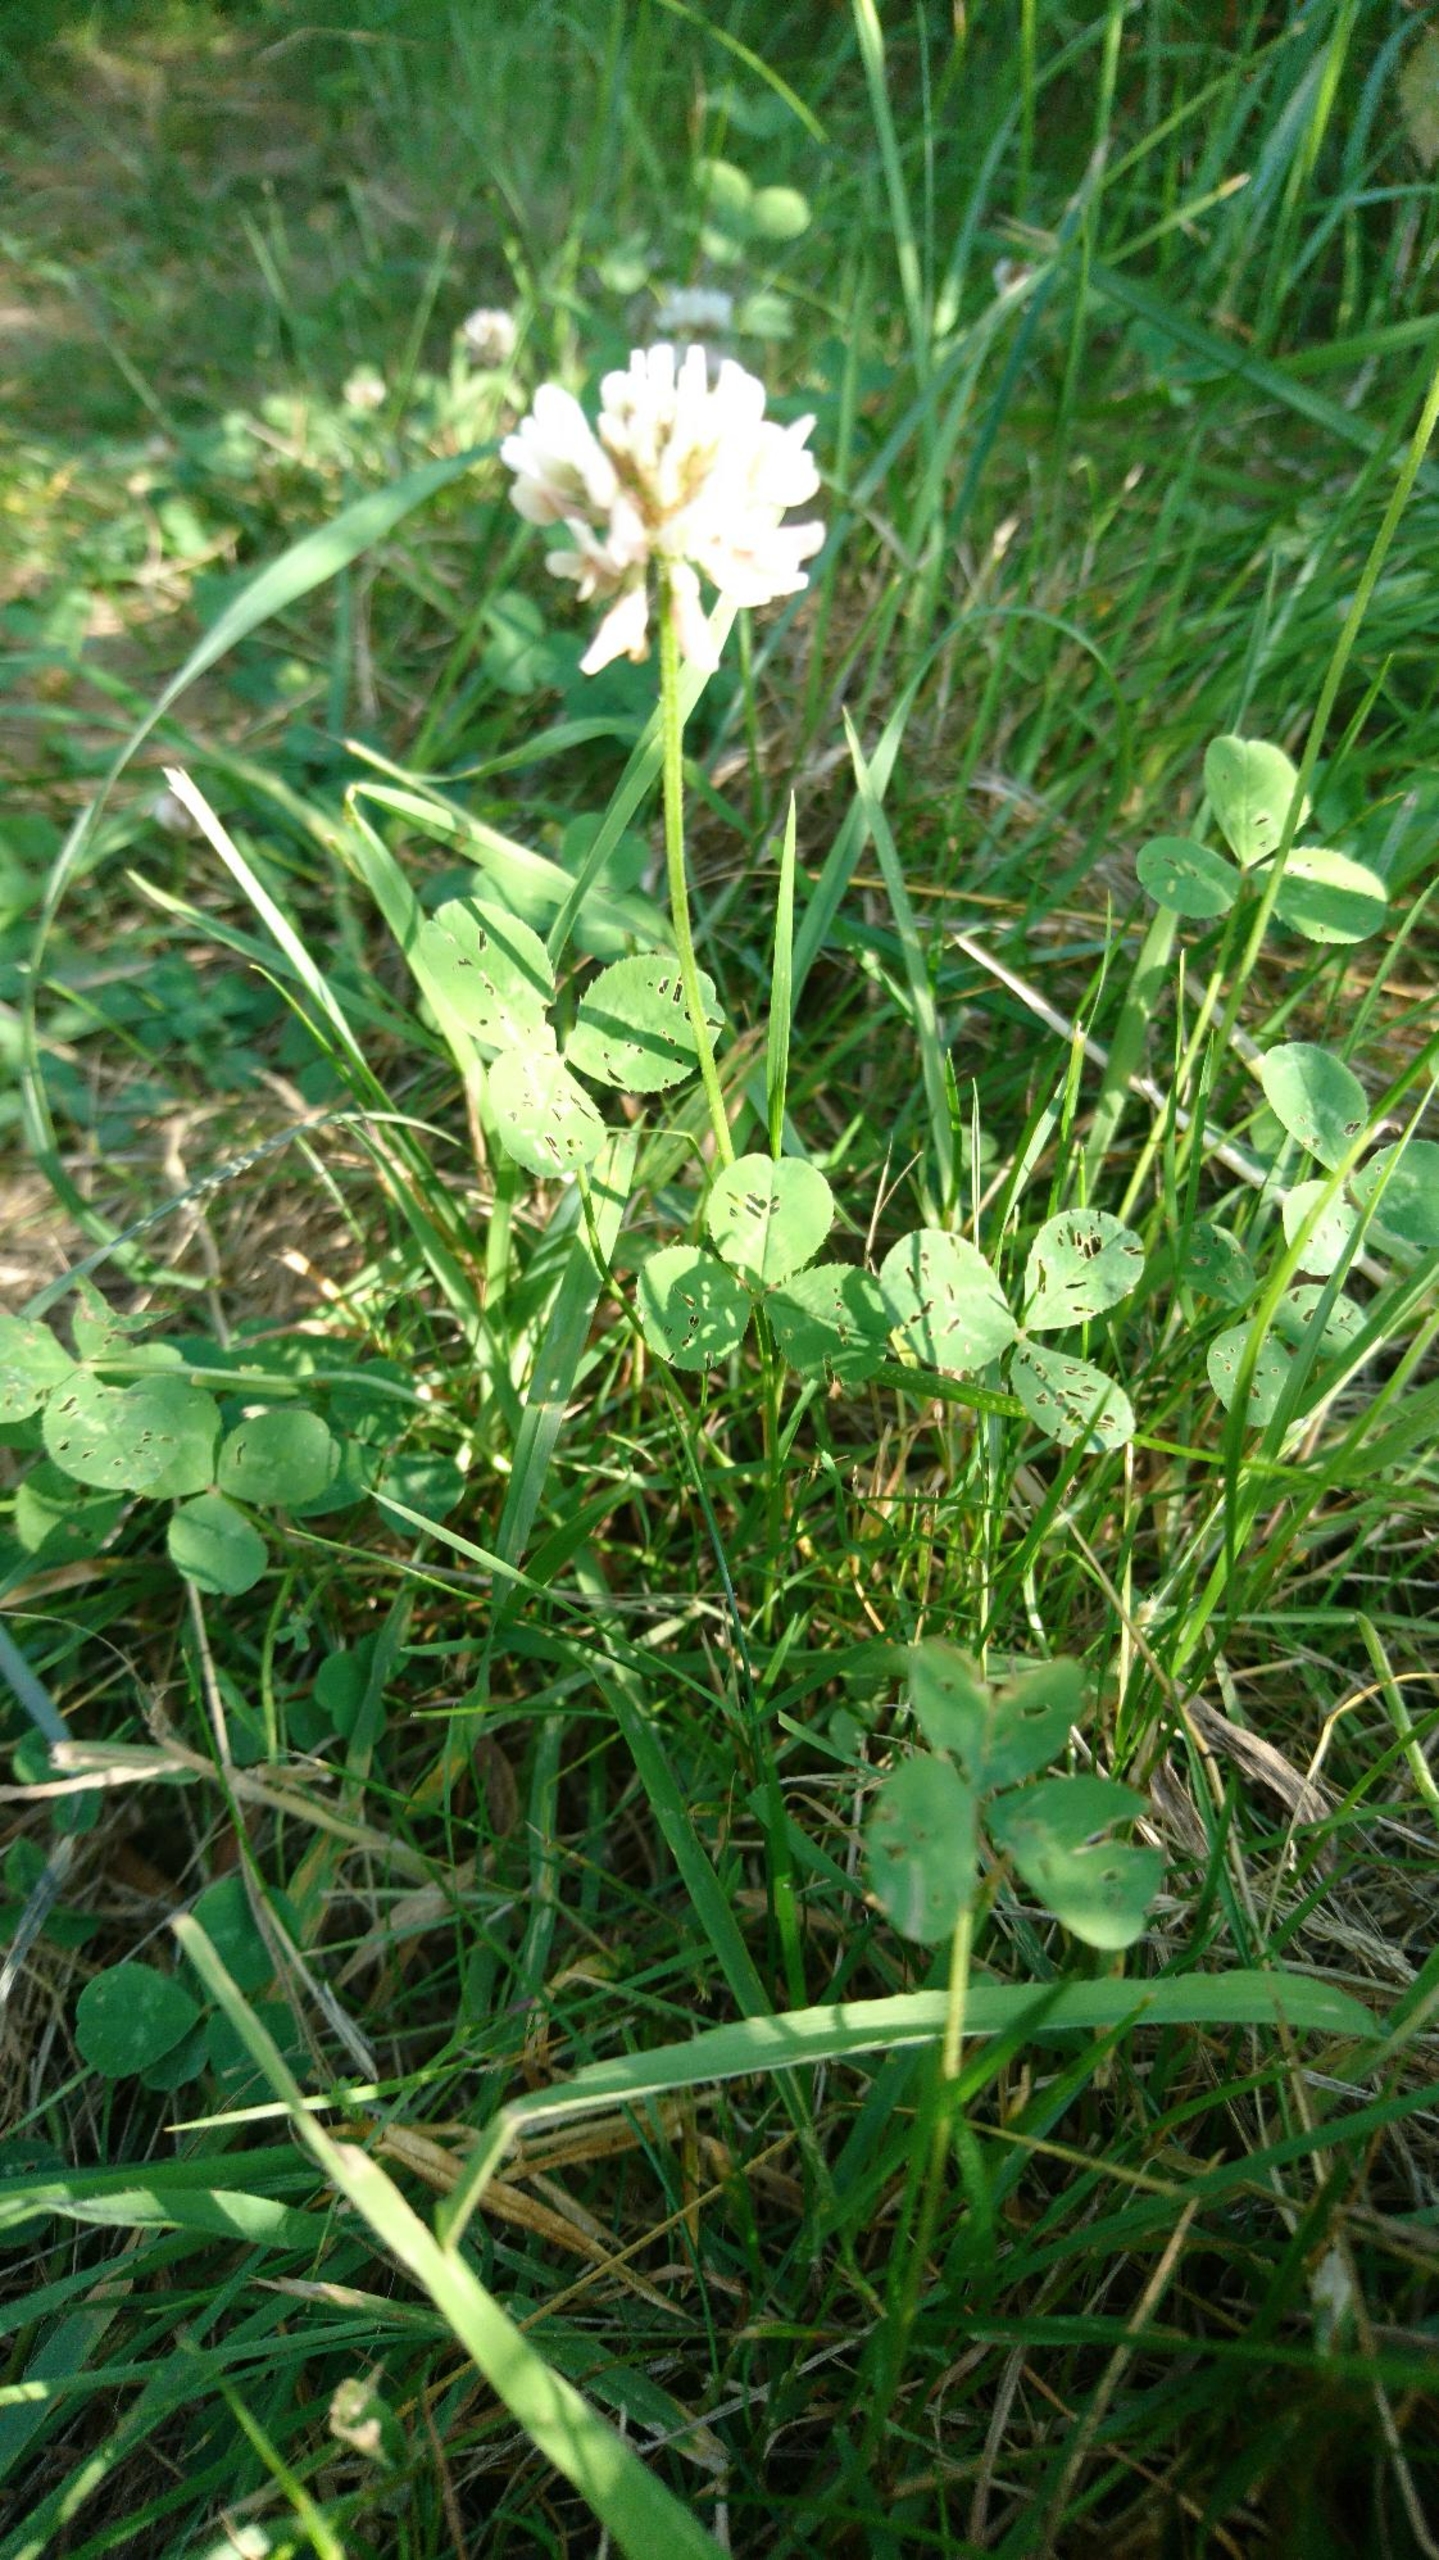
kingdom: Plantae
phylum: Tracheophyta
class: Magnoliopsida
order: Fabales
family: Fabaceae
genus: Trifolium
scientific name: Trifolium repens
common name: Hvid-kløver
